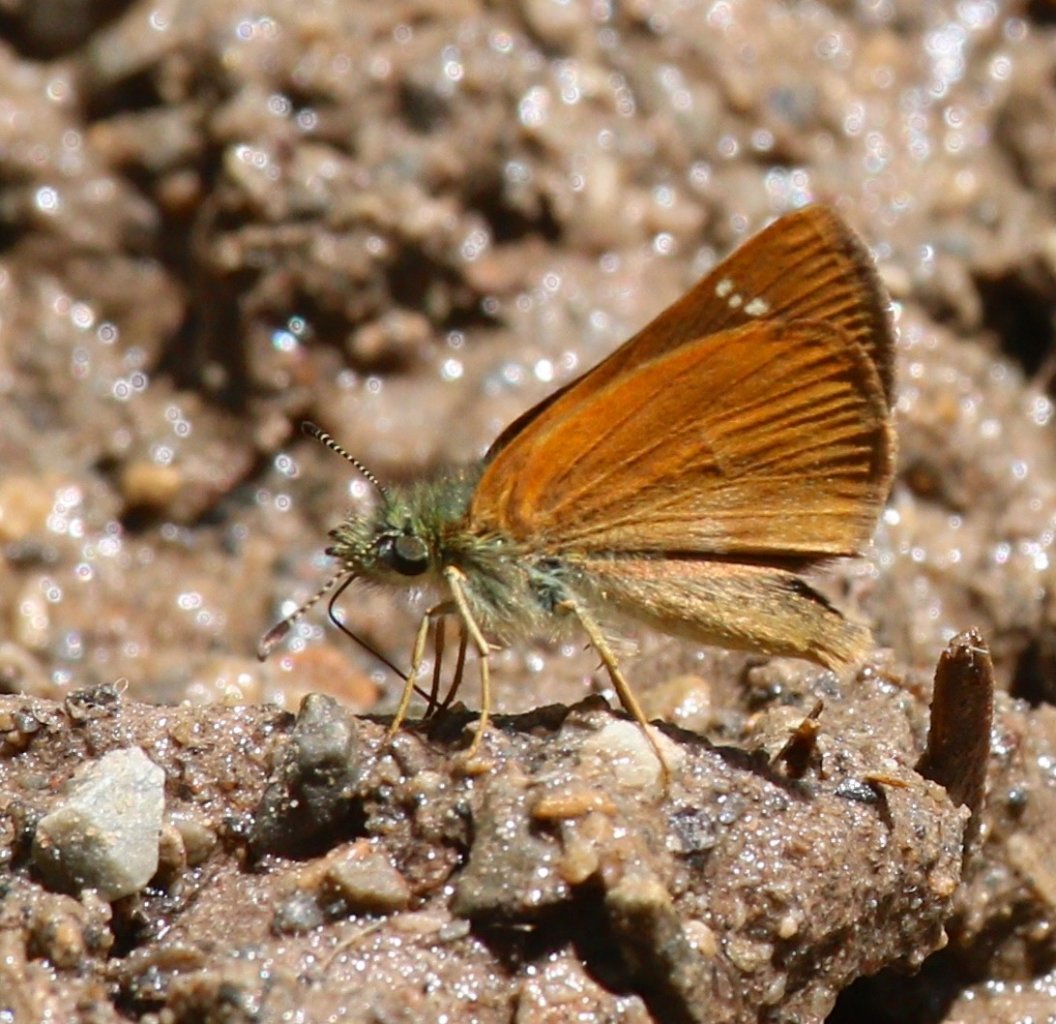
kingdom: Animalia
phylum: Arthropoda
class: Insecta
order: Lepidoptera
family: Hesperiidae
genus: Piruna
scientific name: Piruna pirus
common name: Russet Skipperling
